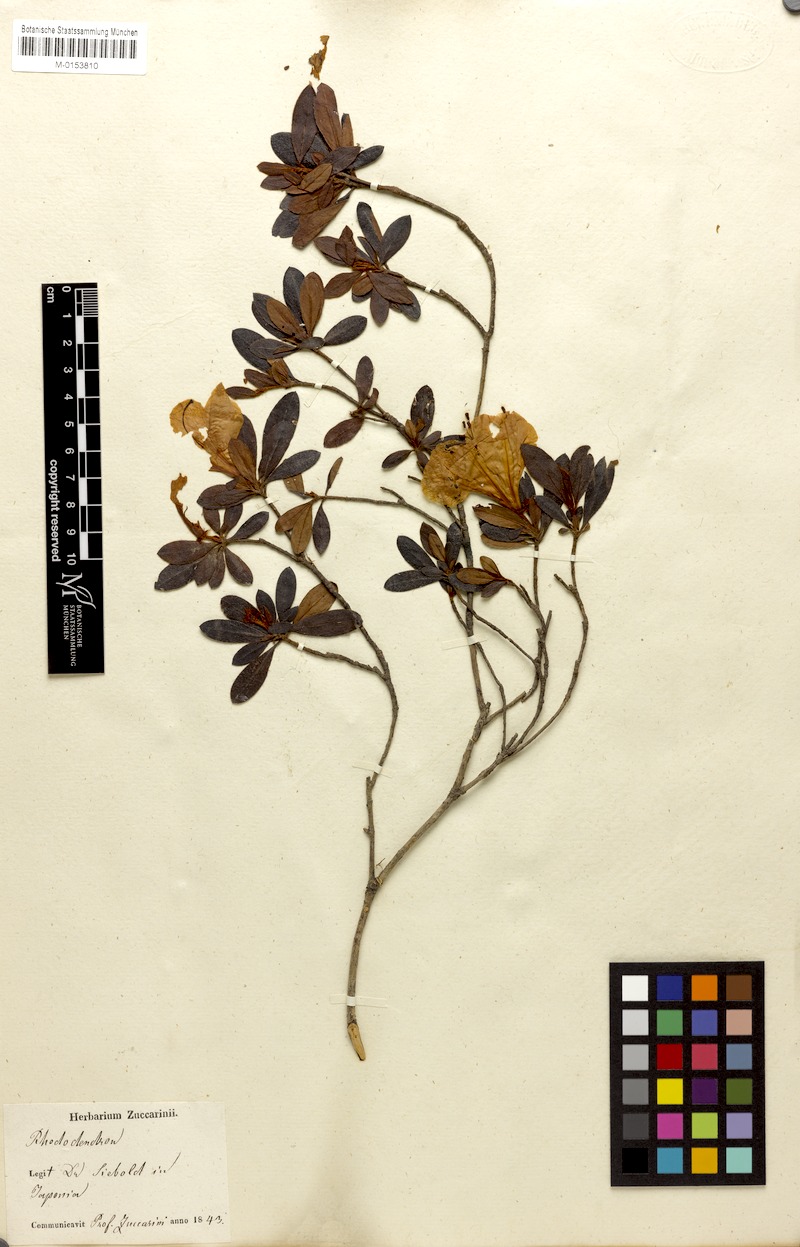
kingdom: Plantae
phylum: Tracheophyta
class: Magnoliopsida
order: Ericales
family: Ericaceae
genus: Rhododendron
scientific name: Rhododendron mucronatum
